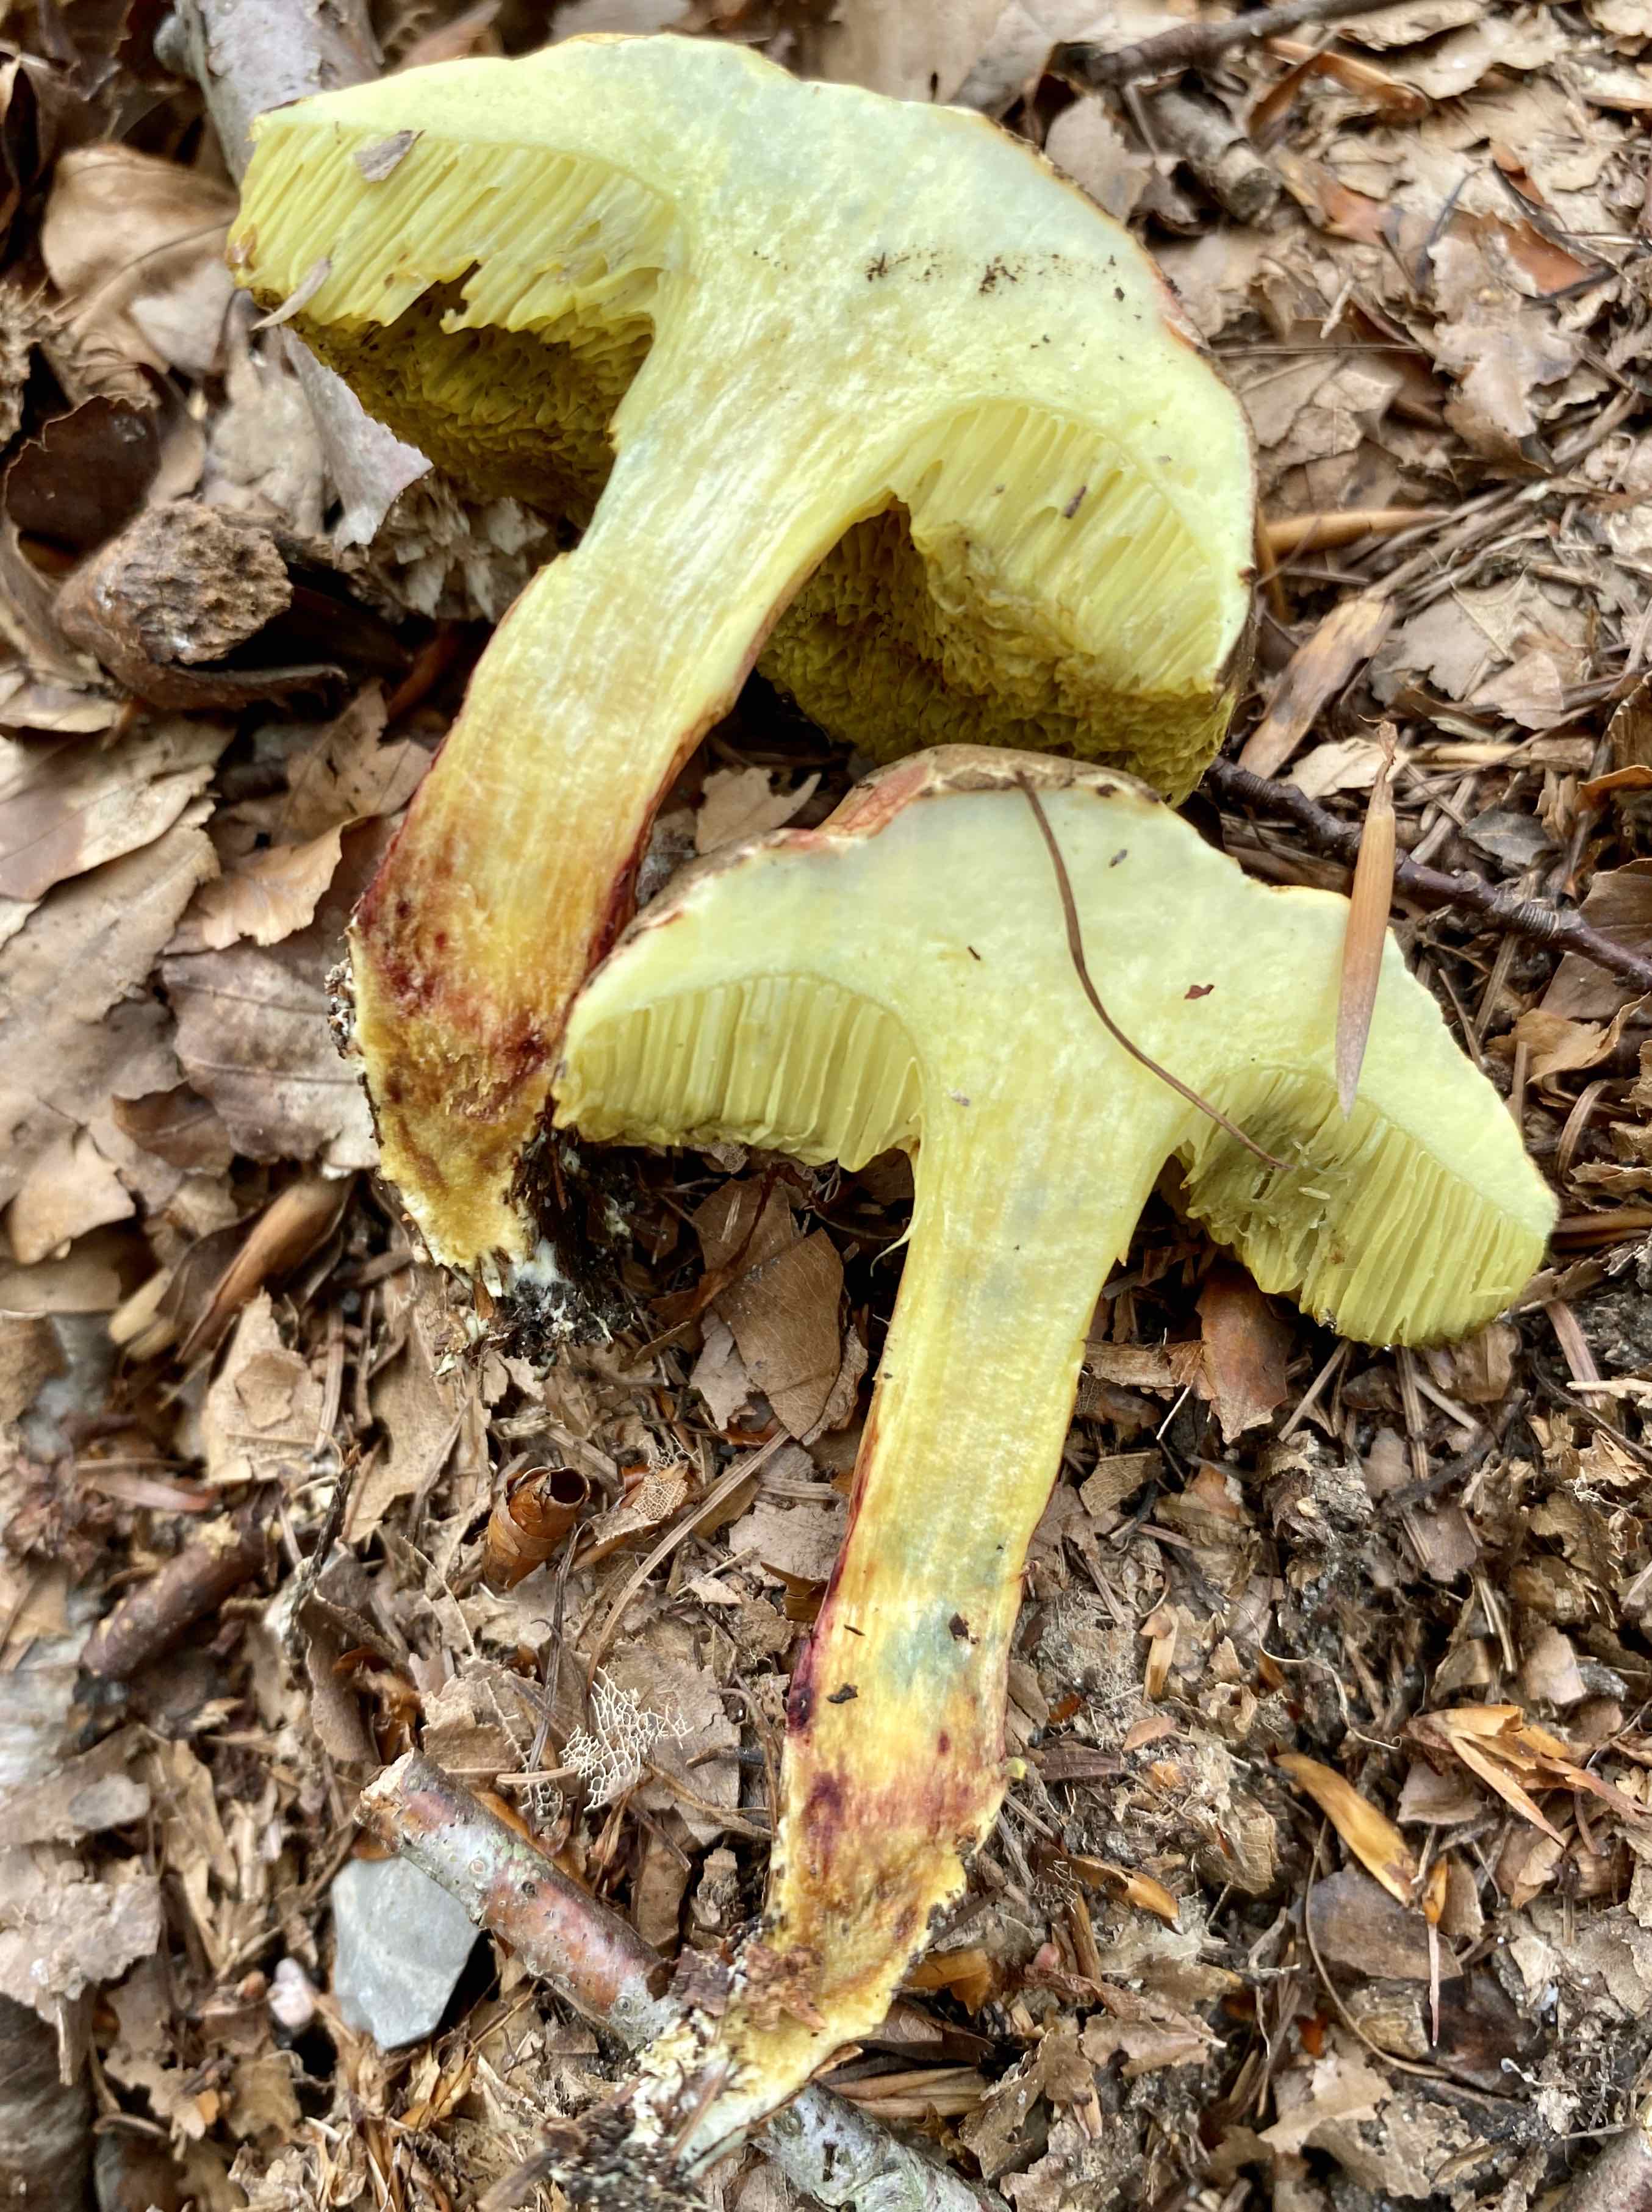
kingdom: Fungi
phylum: Basidiomycota
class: Agaricomycetes
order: Boletales
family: Boletaceae
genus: Xerocomellus
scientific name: Xerocomellus chrysenteron
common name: rødsprukken rørhat
